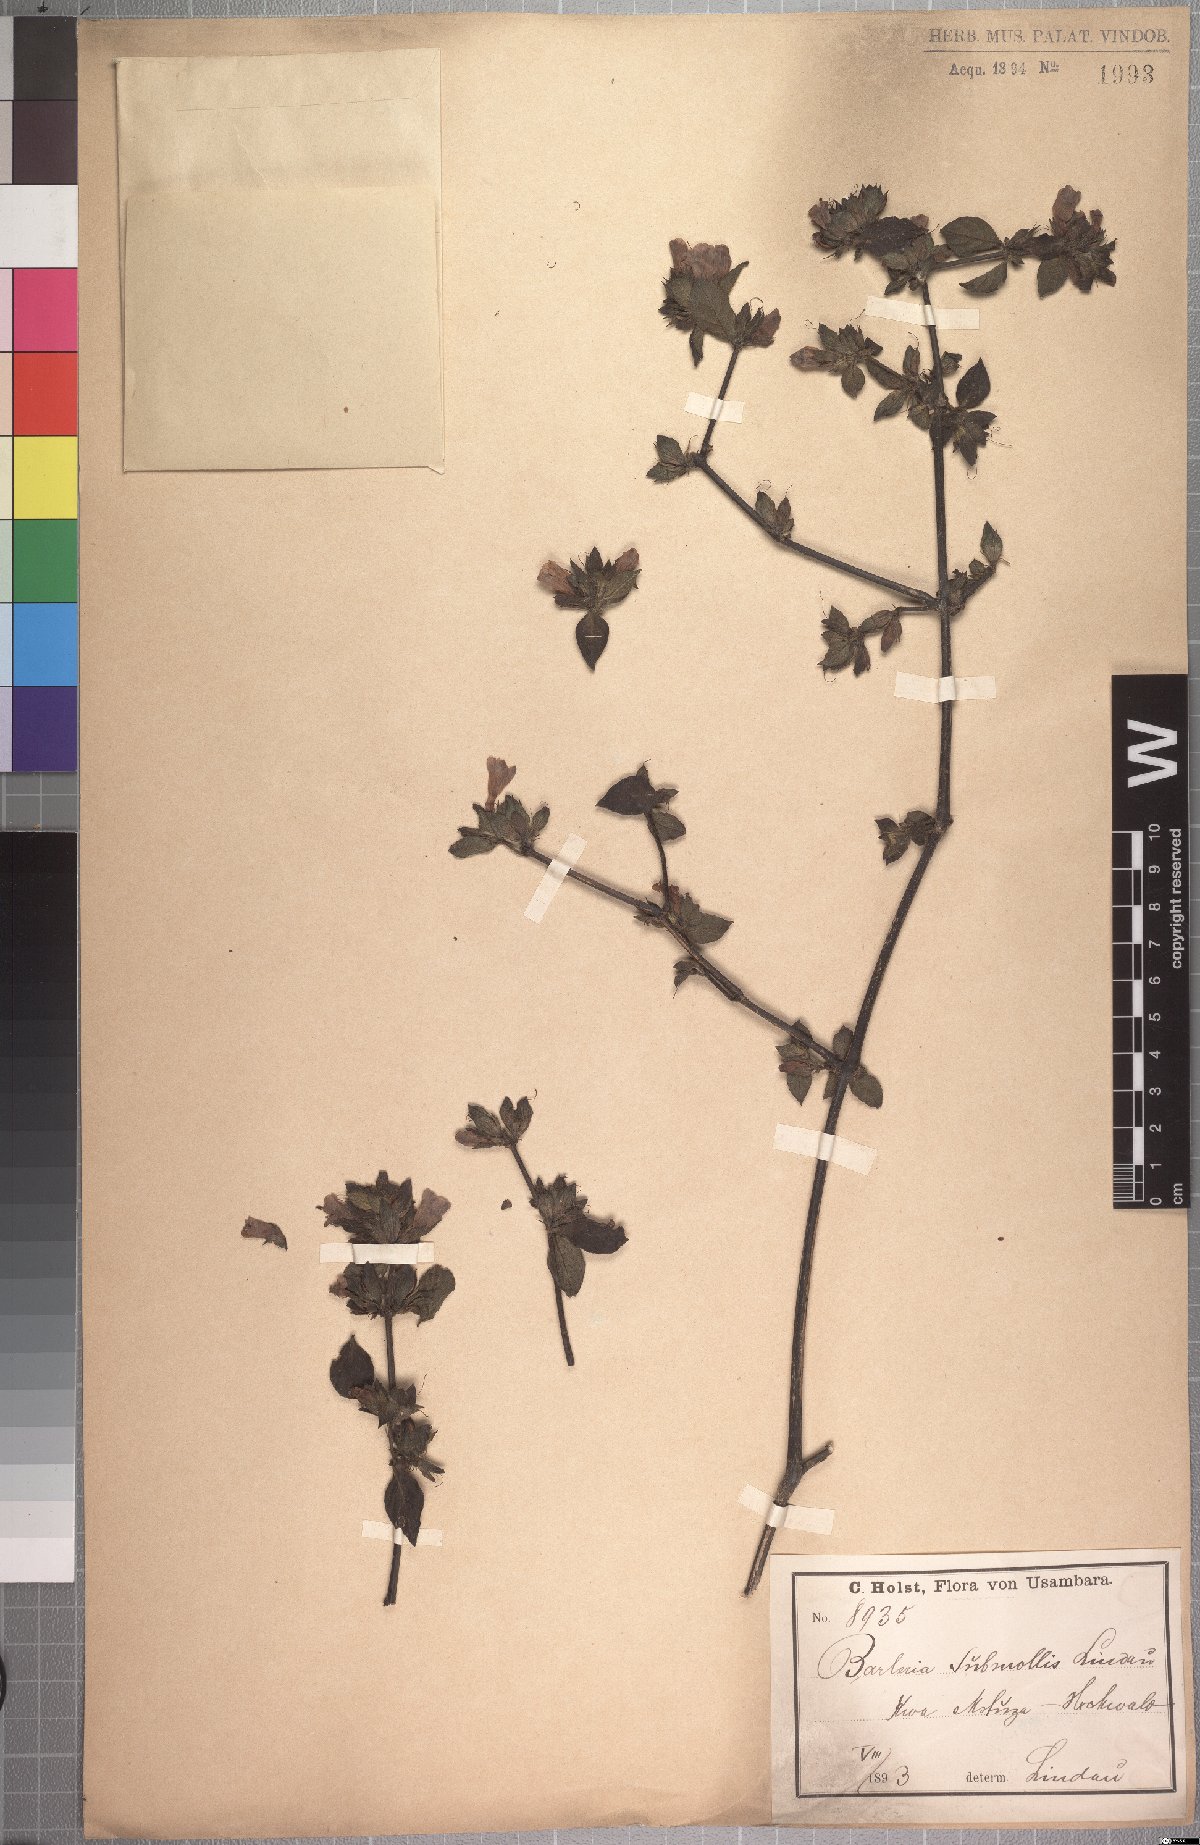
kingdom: Plantae
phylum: Tracheophyta
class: Magnoliopsida
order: Lamiales
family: Acanthaceae
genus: Barleria
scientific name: Barleria submollis
